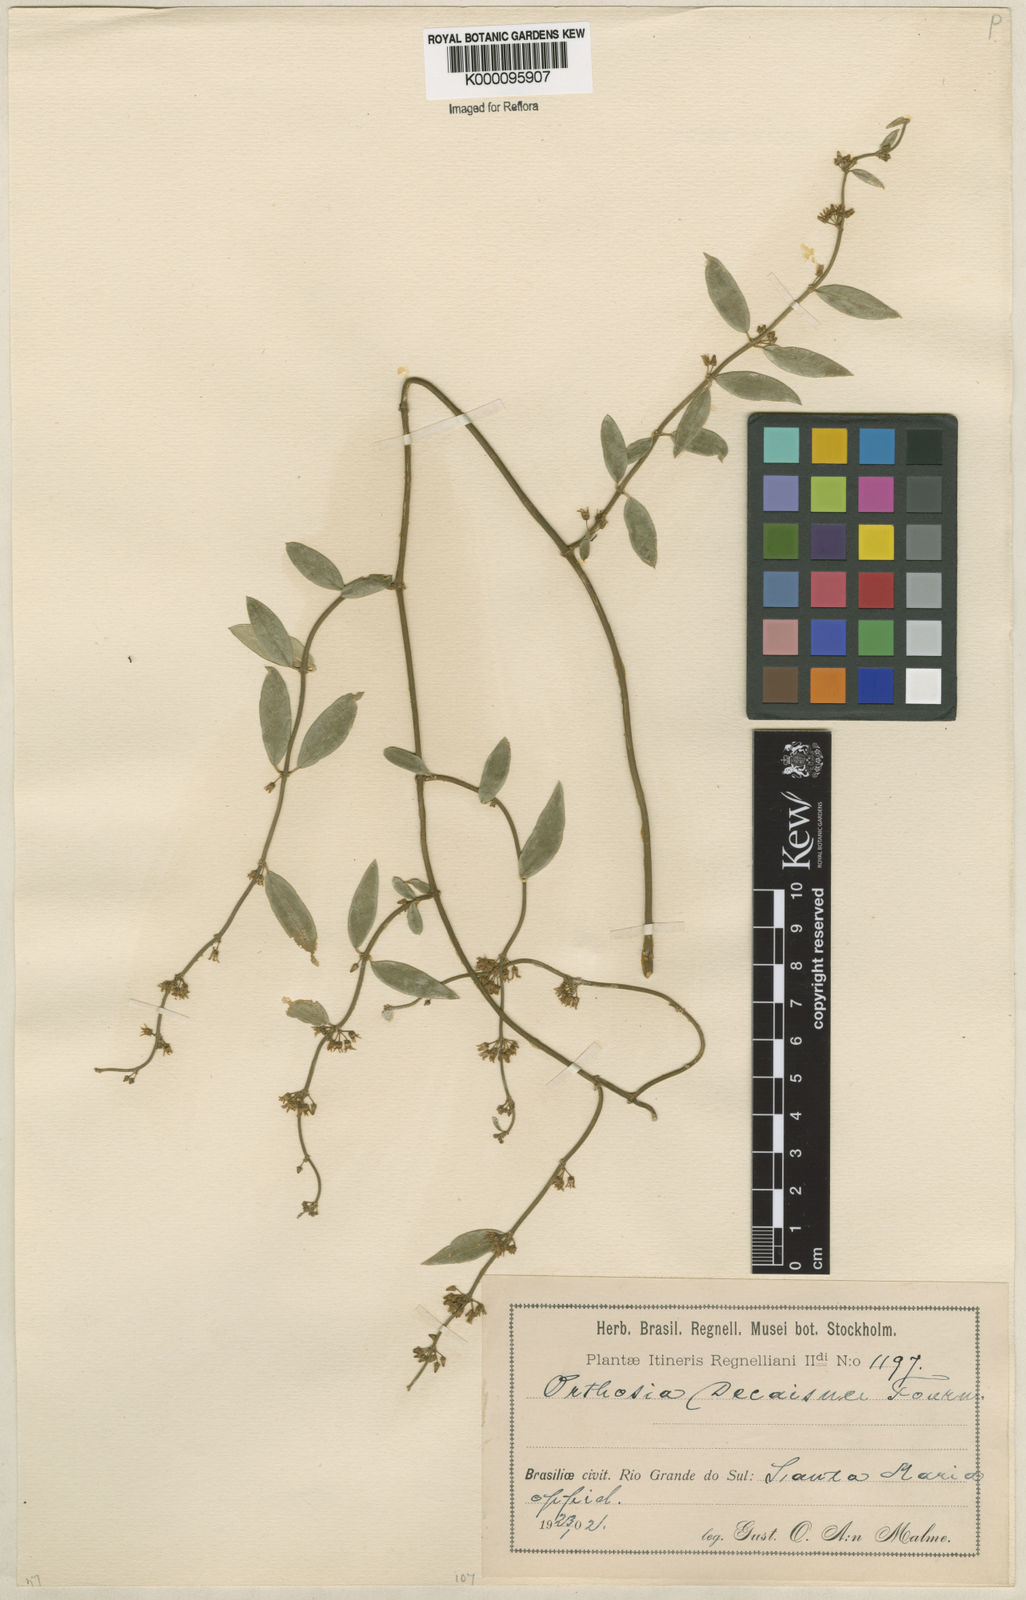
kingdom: Plantae
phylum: Tracheophyta
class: Magnoliopsida
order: Gentianales
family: Apocynaceae
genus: Orthosia
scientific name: Orthosia congesta
